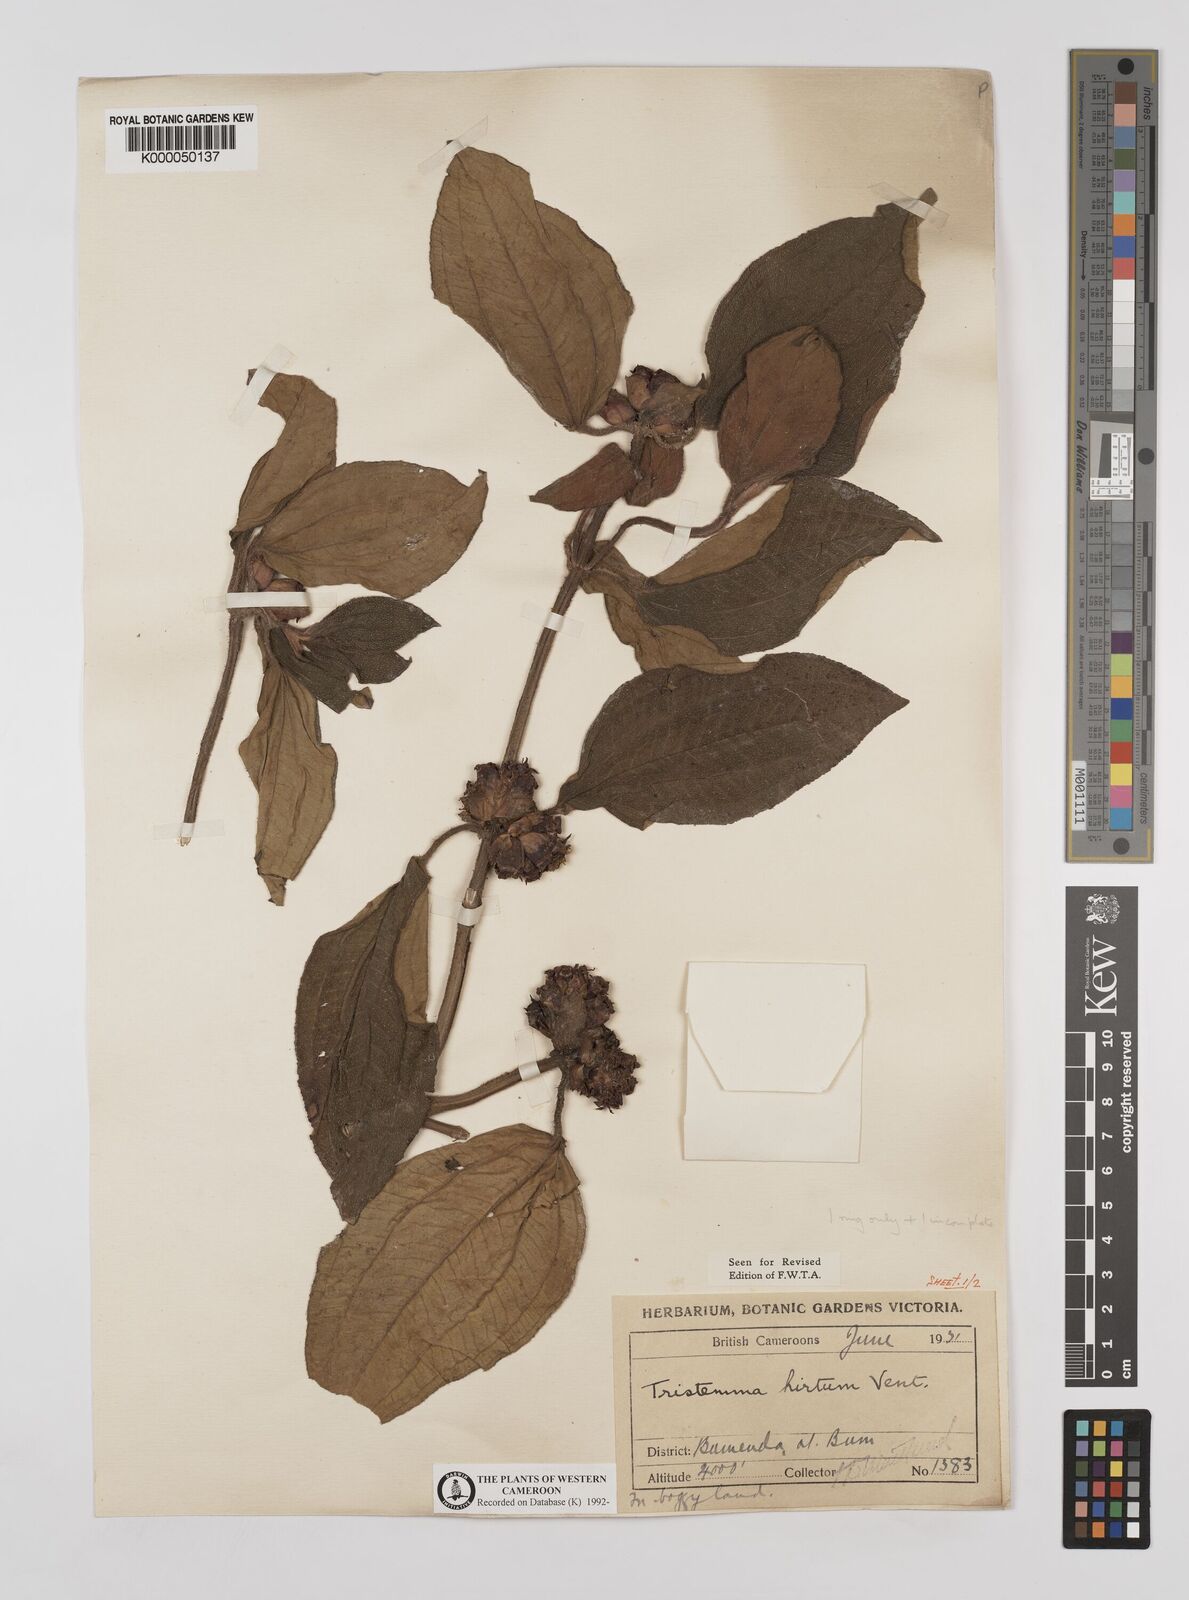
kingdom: Plantae
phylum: Tracheophyta
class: Magnoliopsida
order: Myrtales
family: Melastomataceae
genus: Tristemma
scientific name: Tristemma
